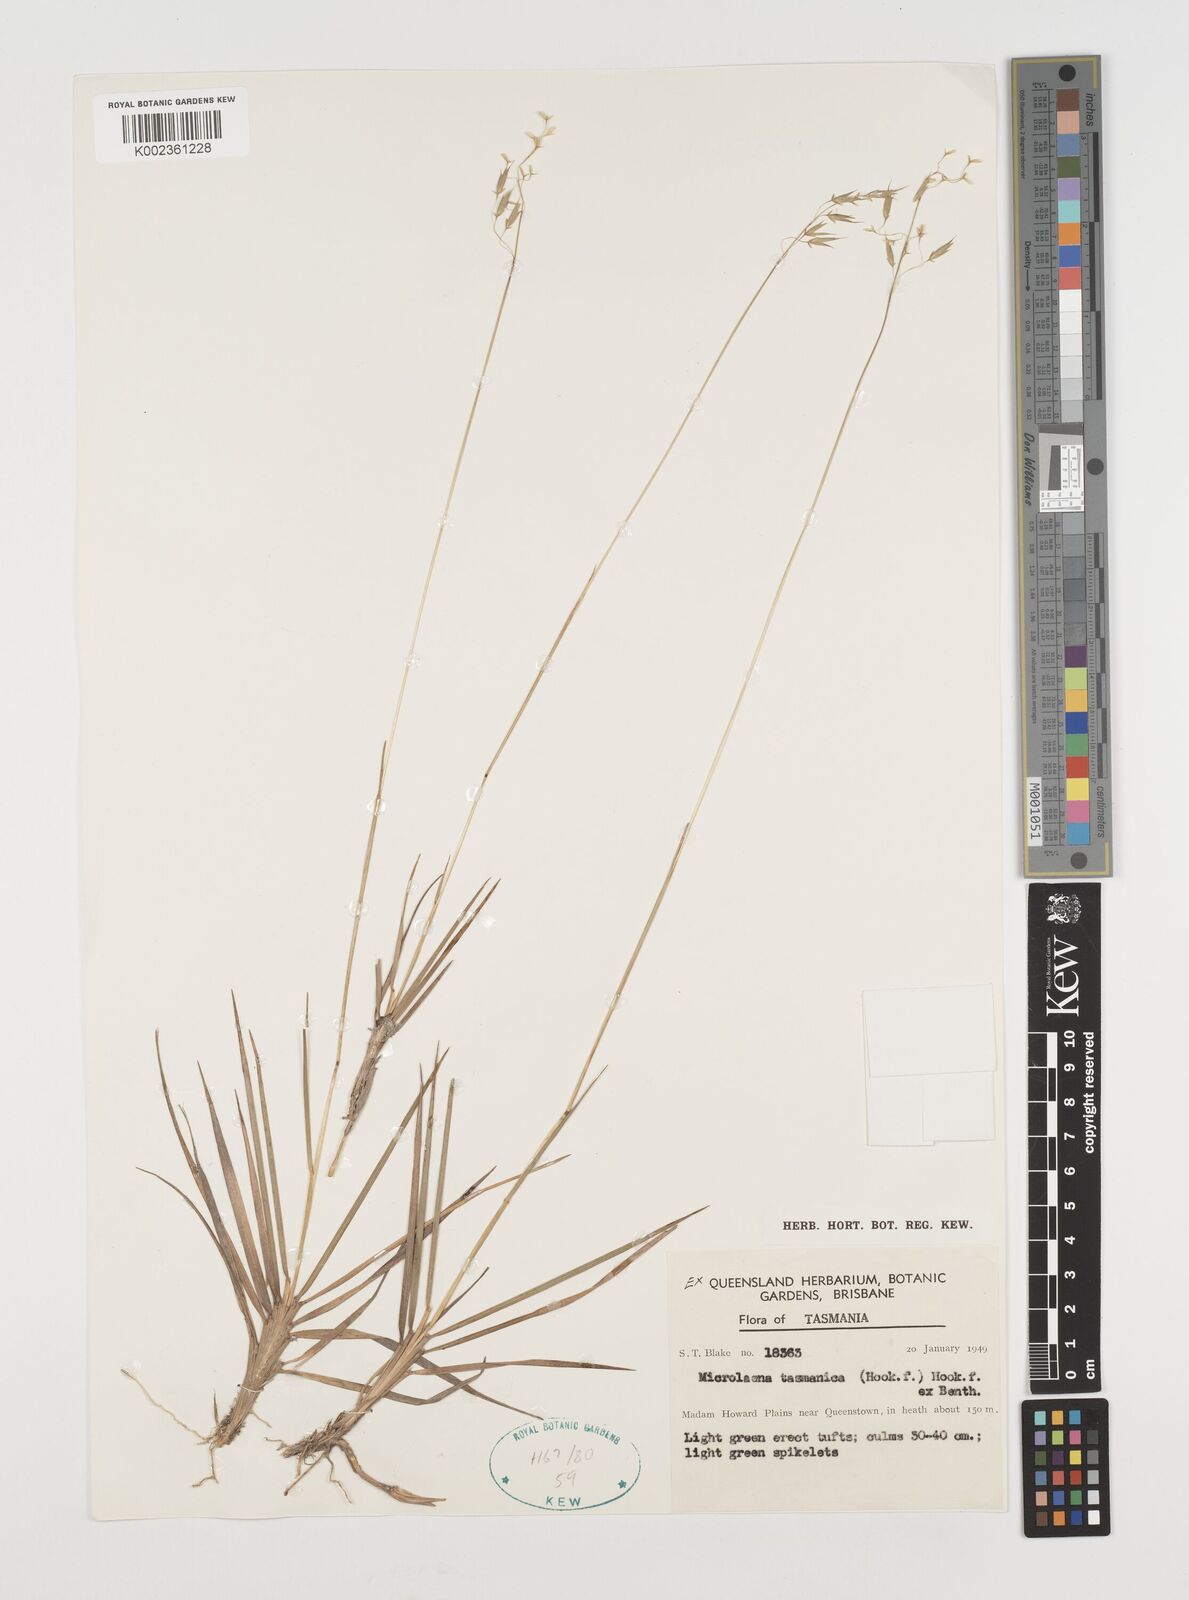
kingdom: Plantae
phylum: Tracheophyta
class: Liliopsida
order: Poales
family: Poaceae
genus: Microlaena
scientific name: Microlaena tasmanica
